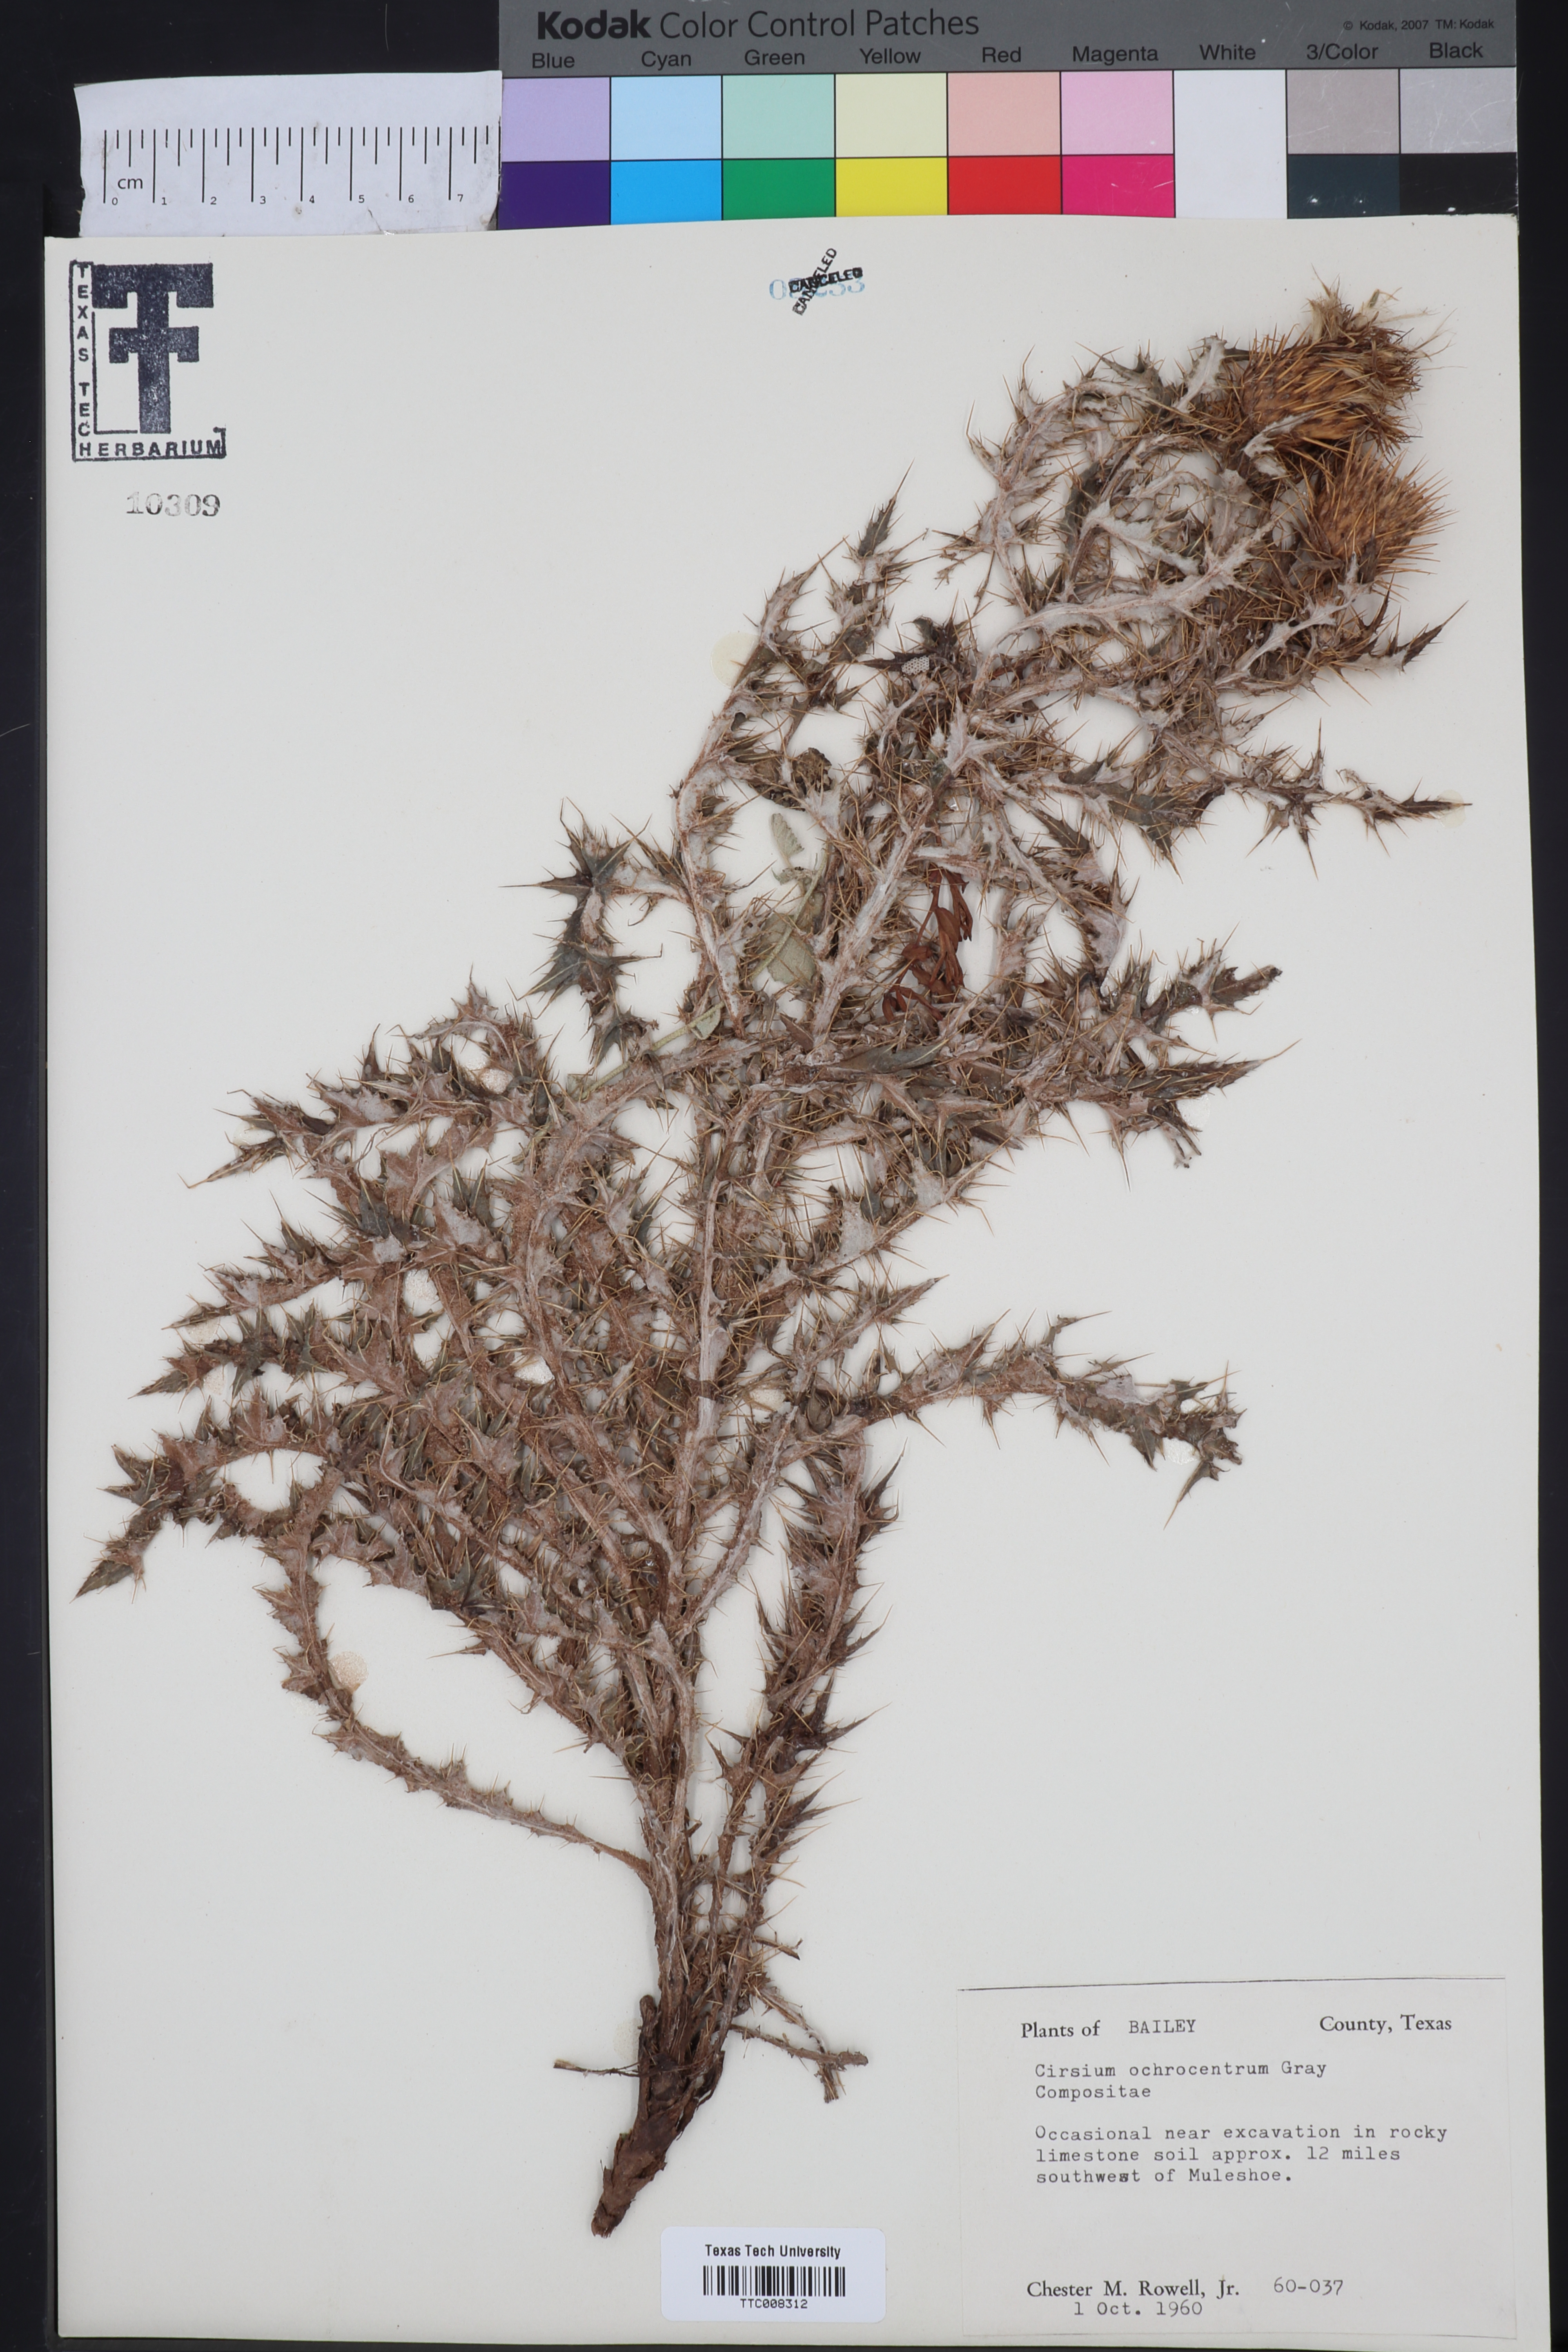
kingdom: Plantae
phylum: Tracheophyta
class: Magnoliopsida
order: Asterales
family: Asteraceae
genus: Cirsium
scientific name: Cirsium ochrocentrum
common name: Yellow-spine thistle
